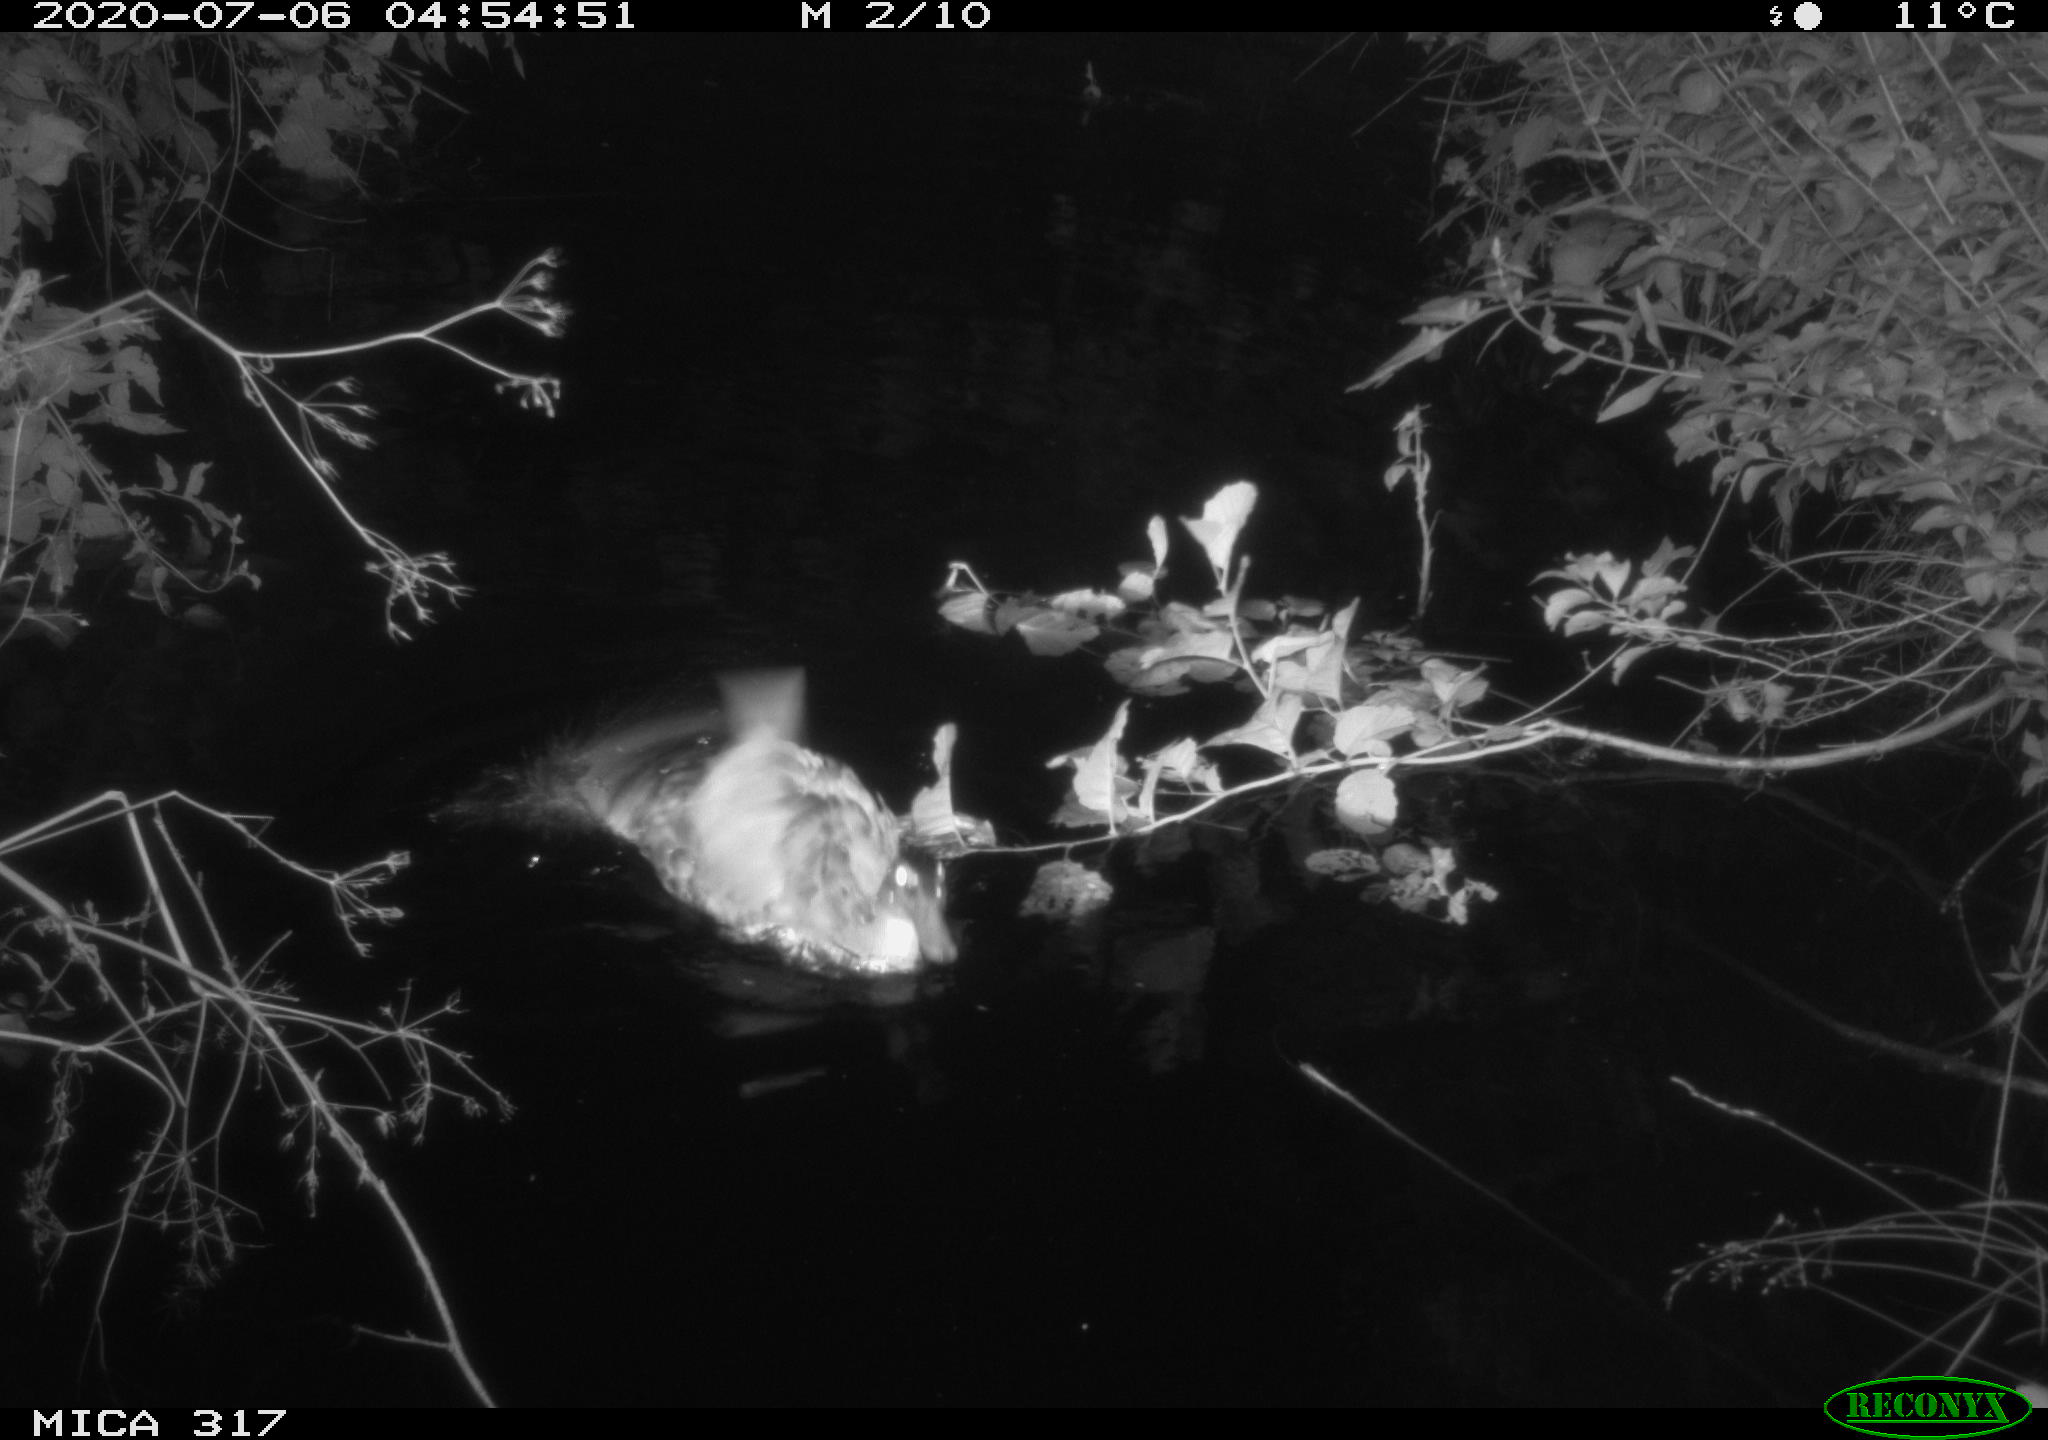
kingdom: Animalia
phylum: Chordata
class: Aves
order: Anseriformes
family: Anatidae
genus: Anas
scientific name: Anas platyrhynchos
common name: Mallard
